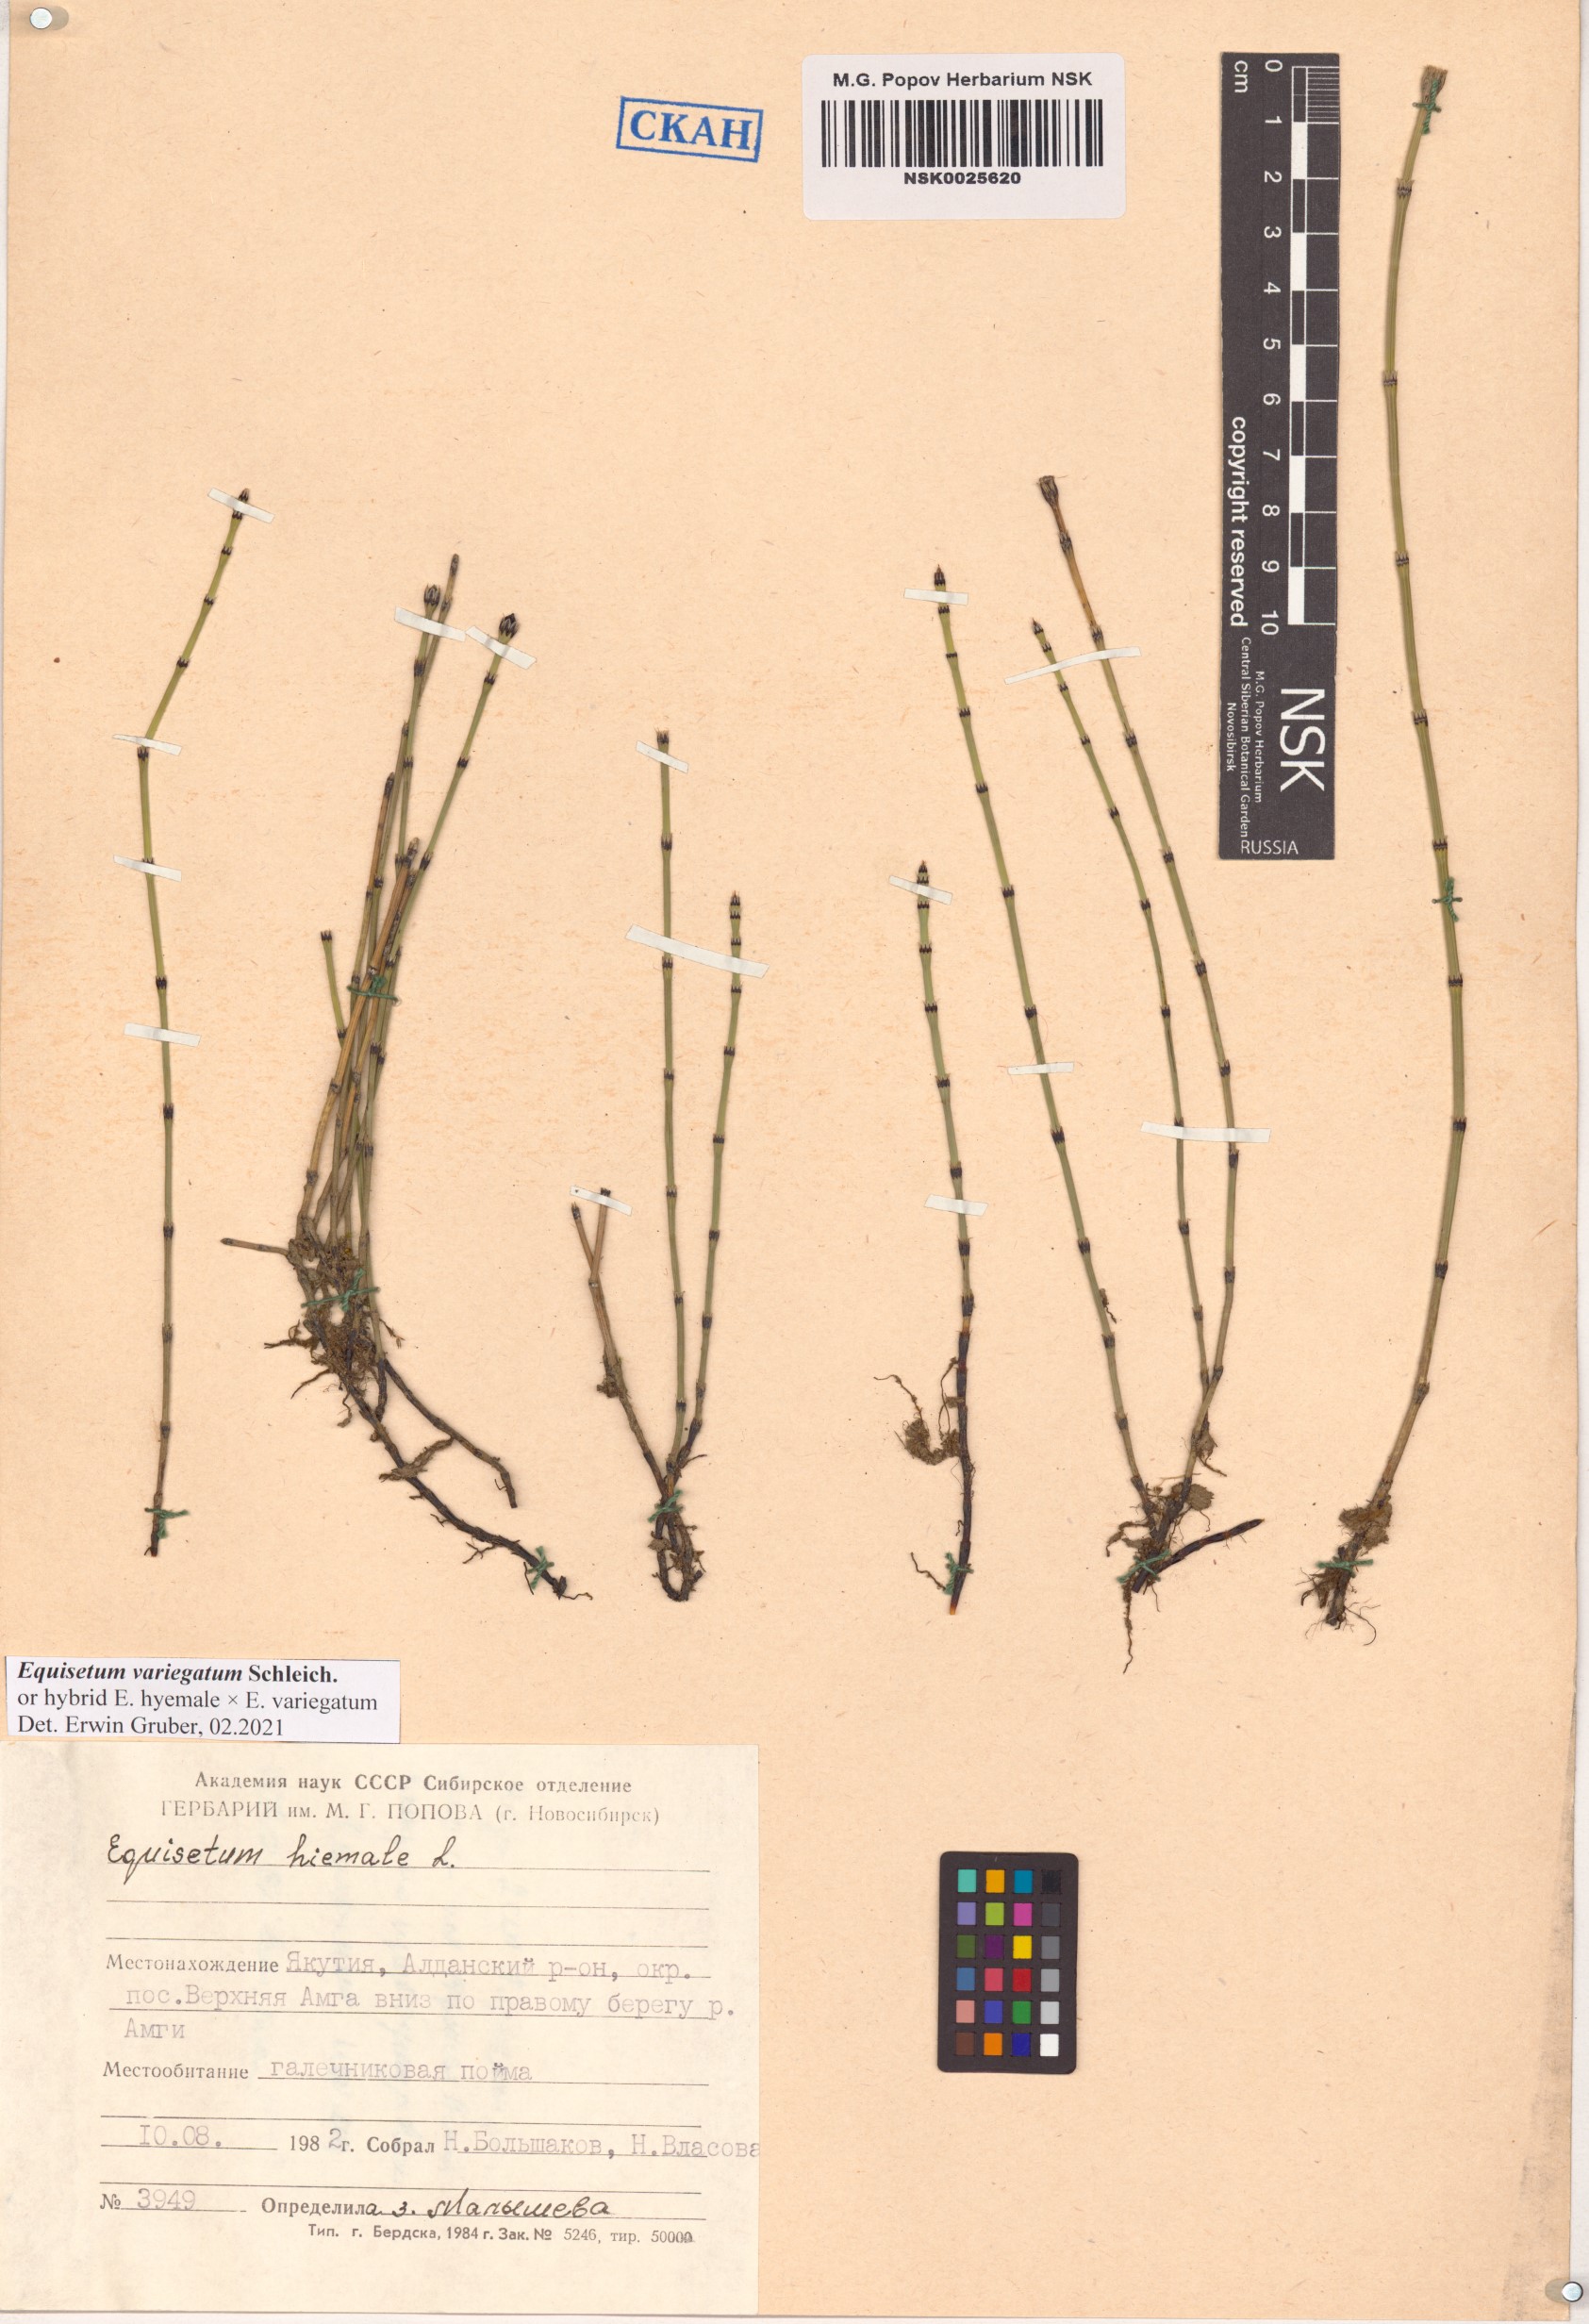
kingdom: Plantae
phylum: Tracheophyta
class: Polypodiopsida
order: Equisetales
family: Equisetaceae
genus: Equisetum
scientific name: Equisetum variegatum
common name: Variegated horsetail
